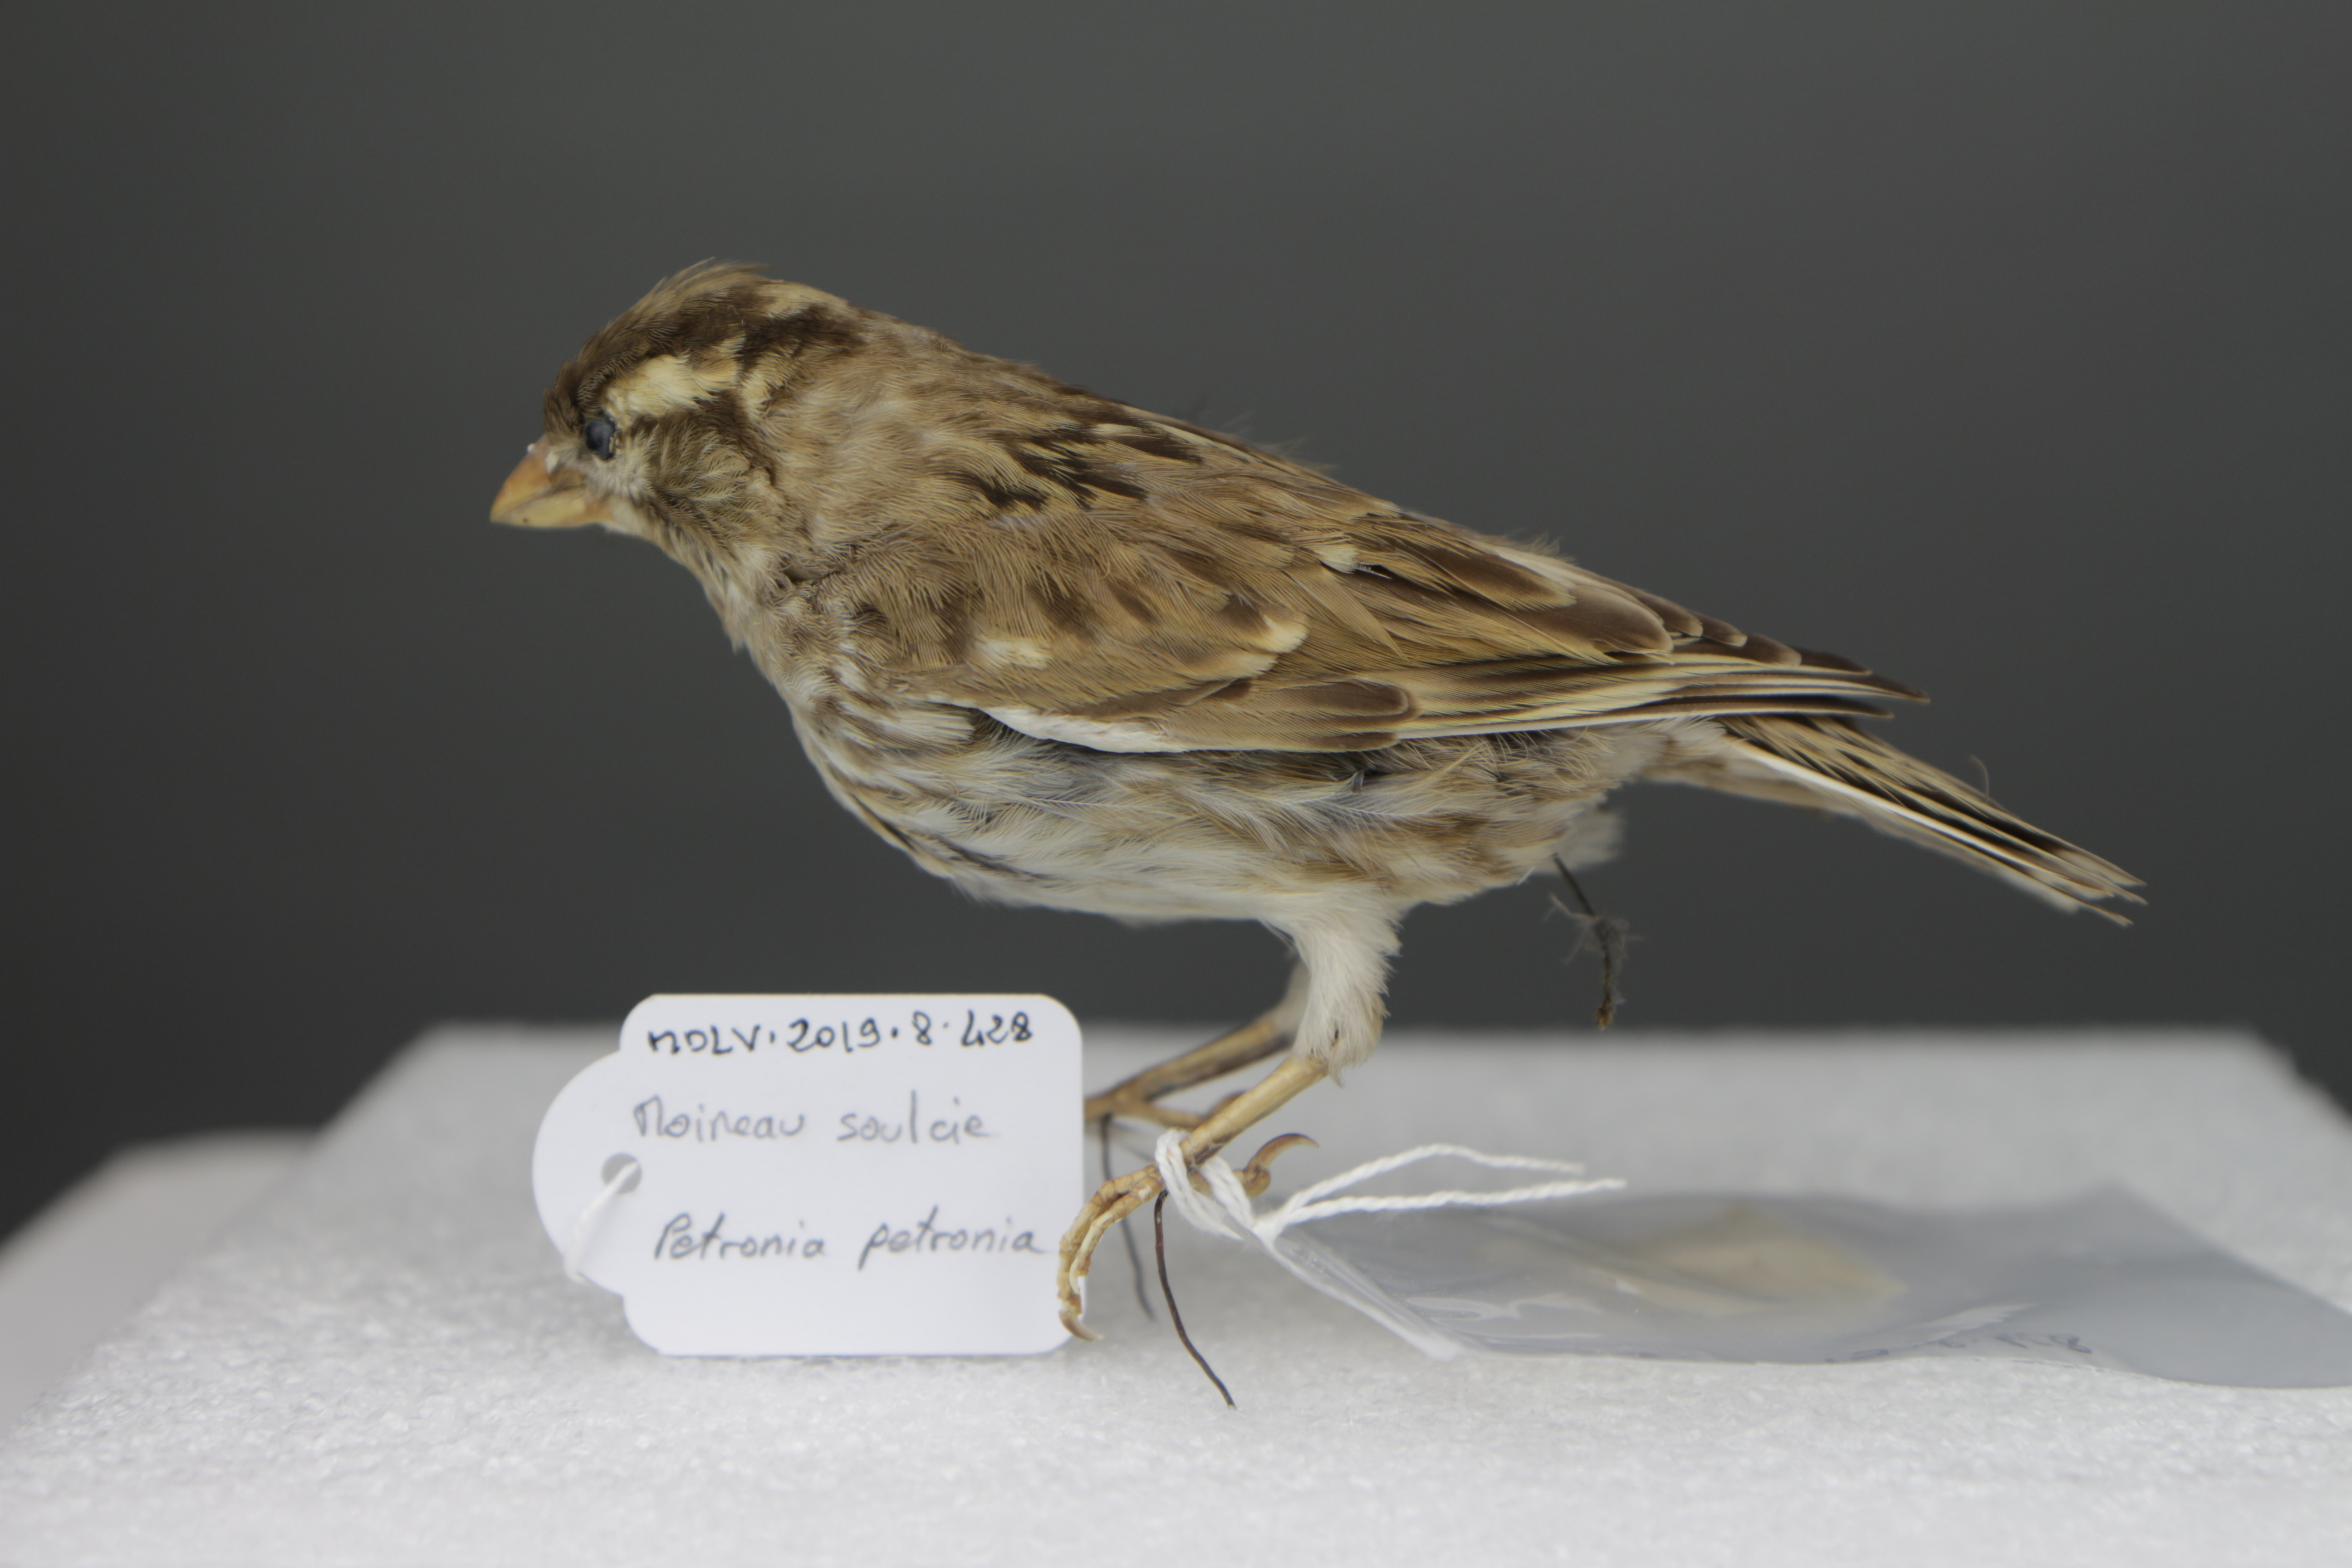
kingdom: Animalia
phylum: Chordata
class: Aves
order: Passeriformes
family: Passeridae
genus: Petronia
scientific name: Petronia petronia
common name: Rock sparrow
